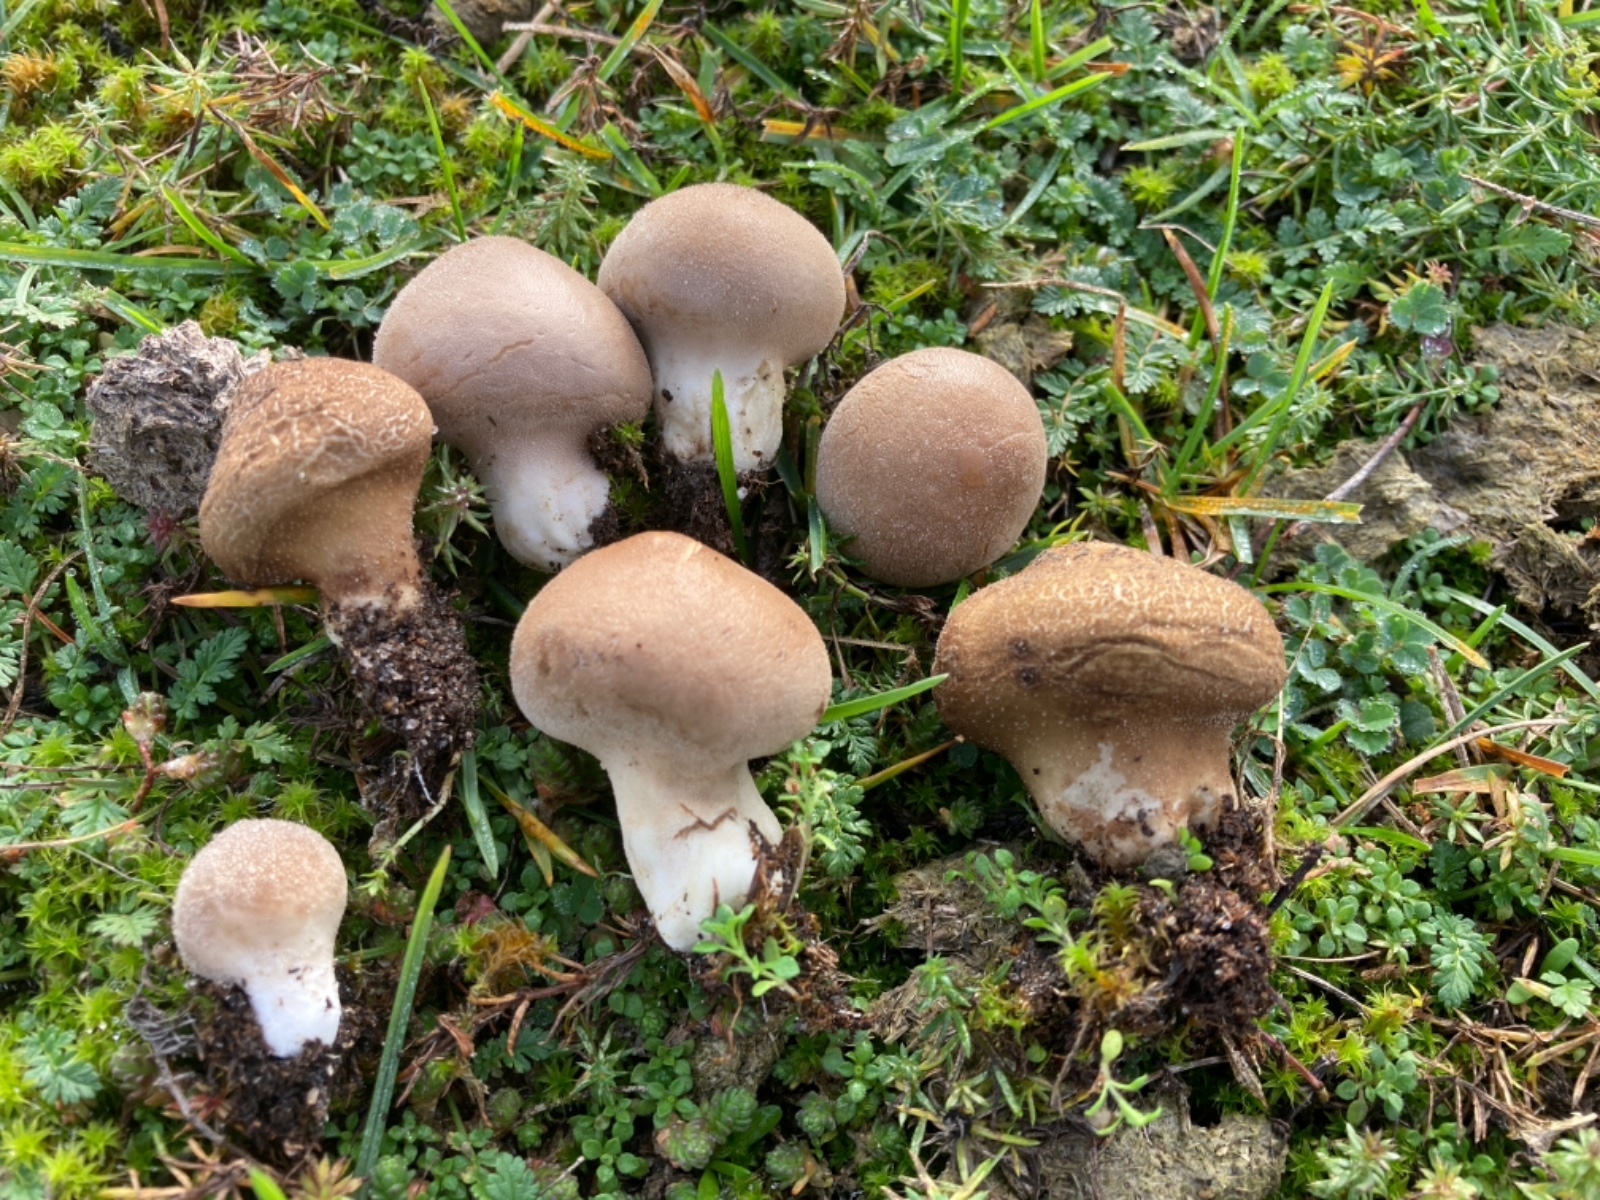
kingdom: Fungi
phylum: Basidiomycota
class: Agaricomycetes
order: Agaricales
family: Lycoperdaceae
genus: Lycoperdon
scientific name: Lycoperdon lividum
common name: mark-støvbold
